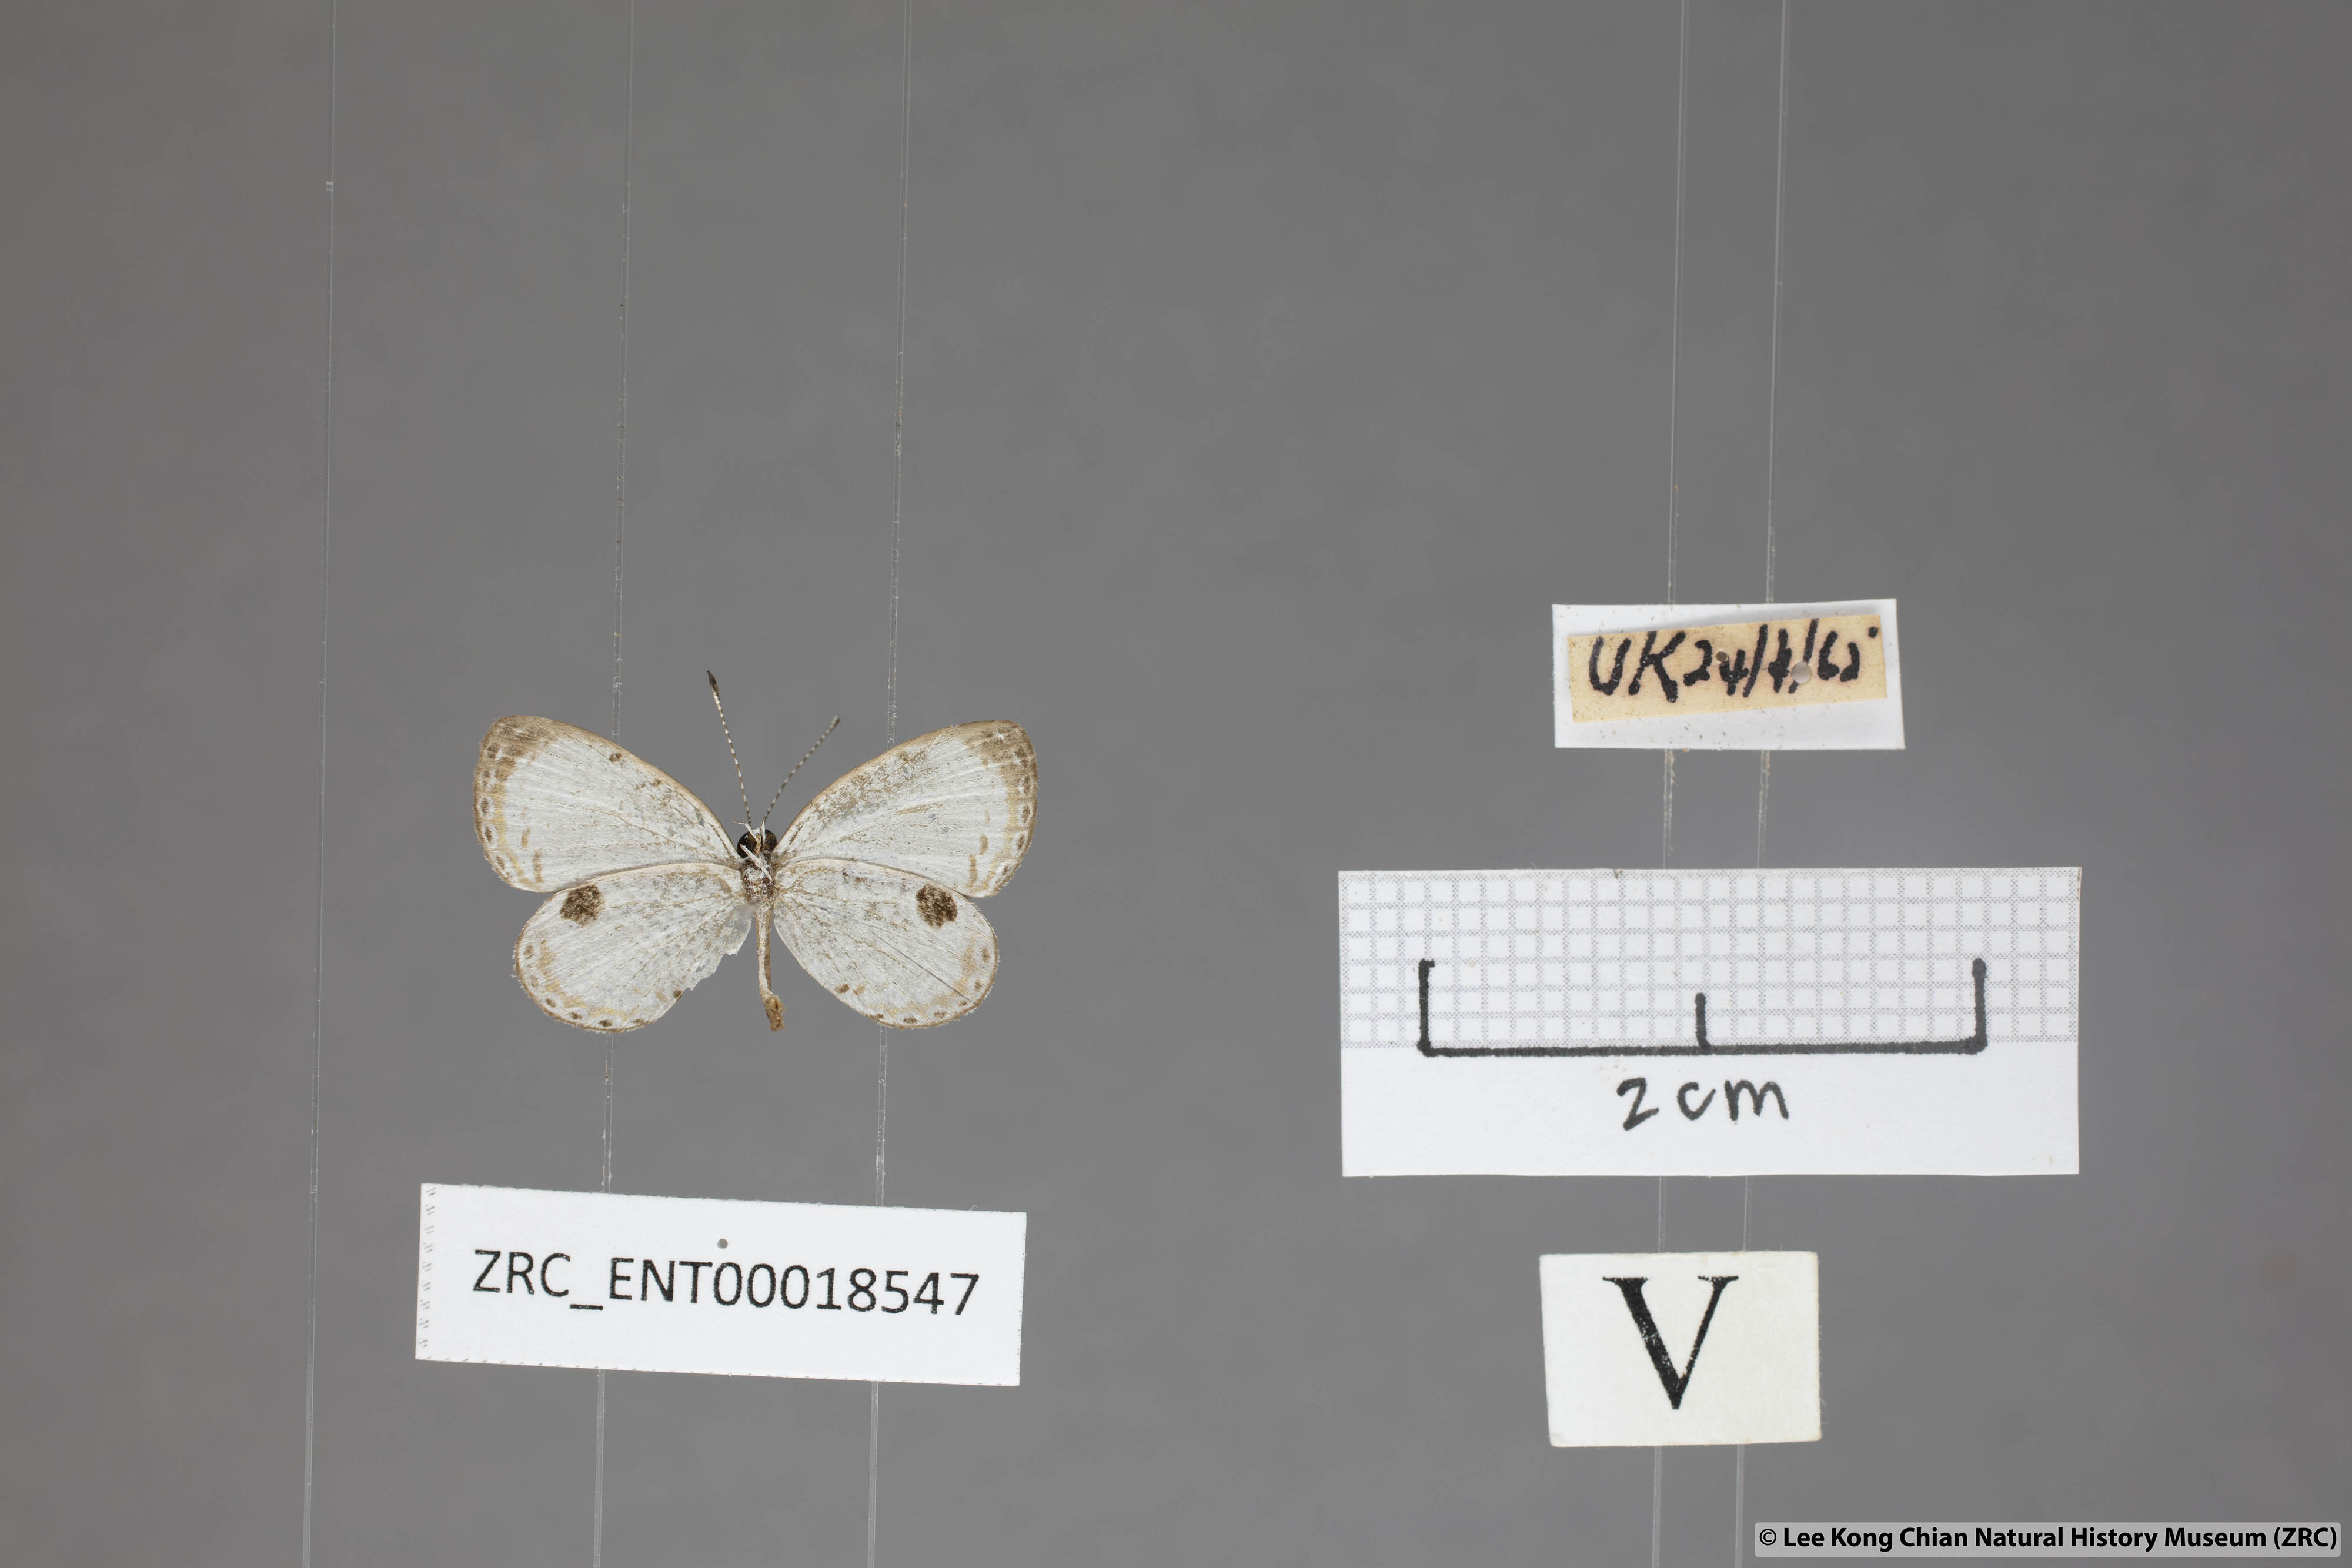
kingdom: Animalia
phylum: Arthropoda
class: Insecta
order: Lepidoptera
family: Lycaenidae
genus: Pithecops
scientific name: Pithecops corvus
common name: Forest quaker
